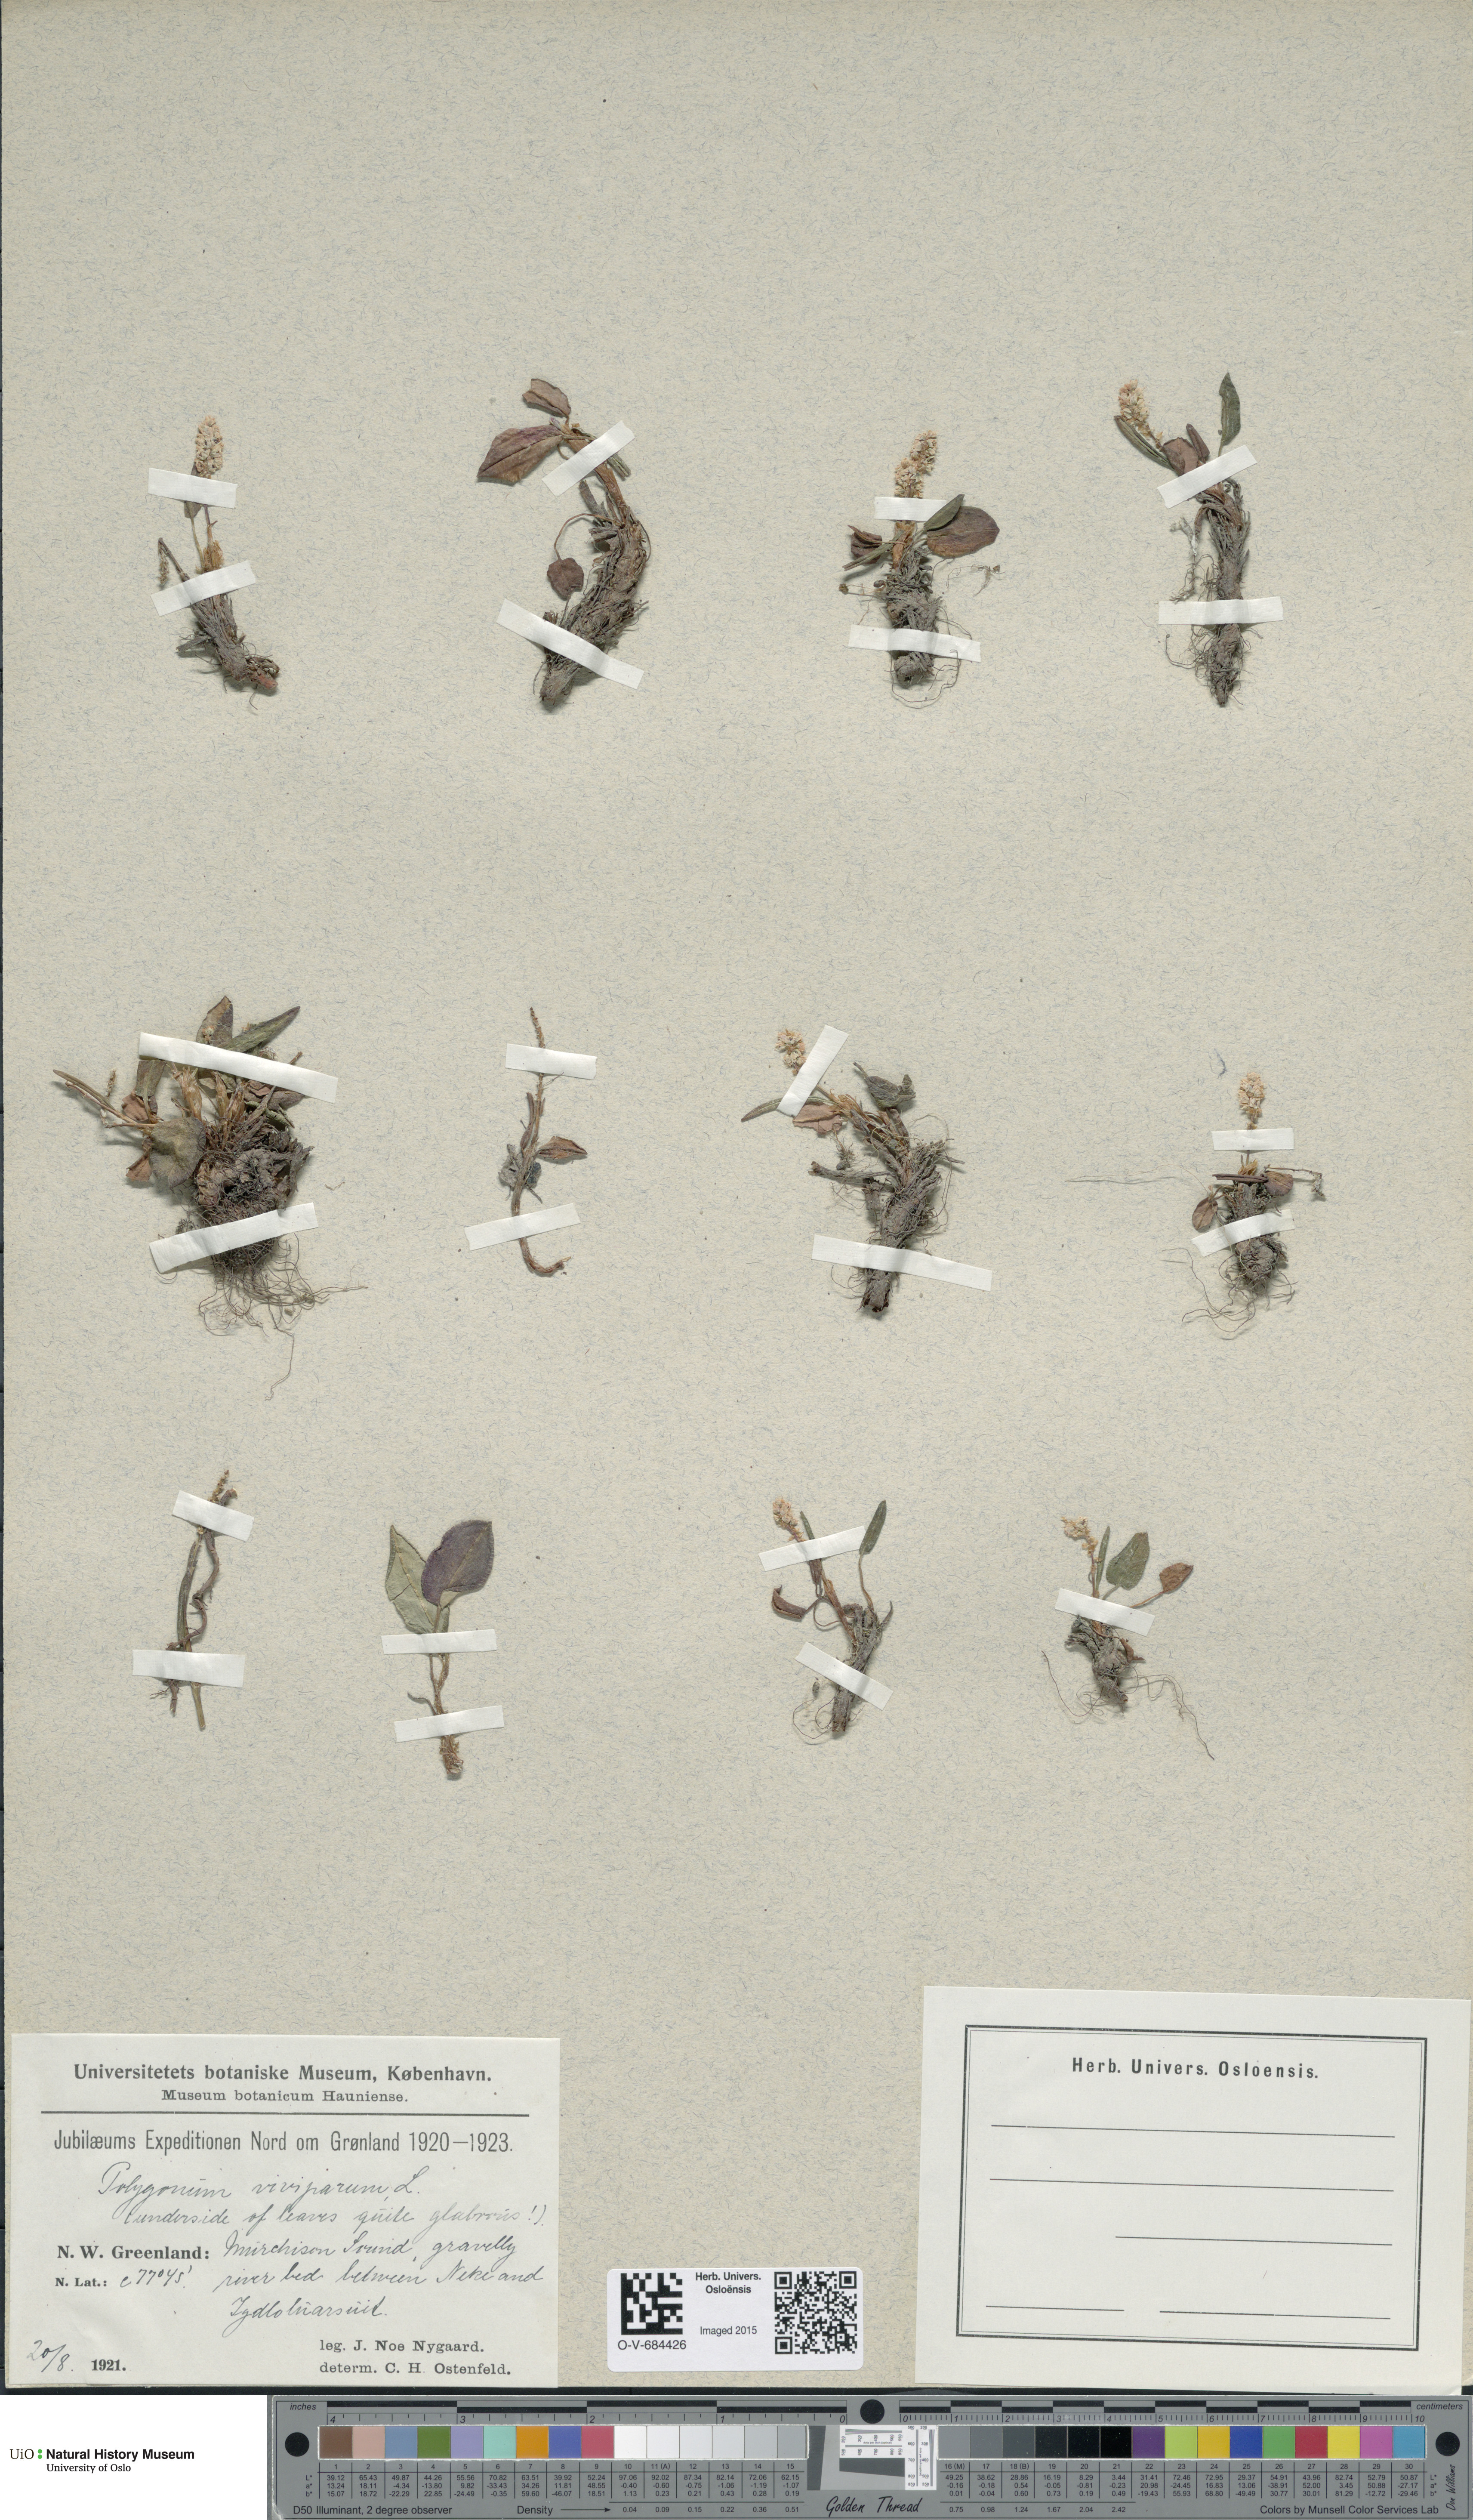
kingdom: Plantae
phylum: Tracheophyta
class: Magnoliopsida
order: Caryophyllales
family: Polygonaceae
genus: Bistorta
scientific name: Bistorta vivipara
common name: Alpine bistort
